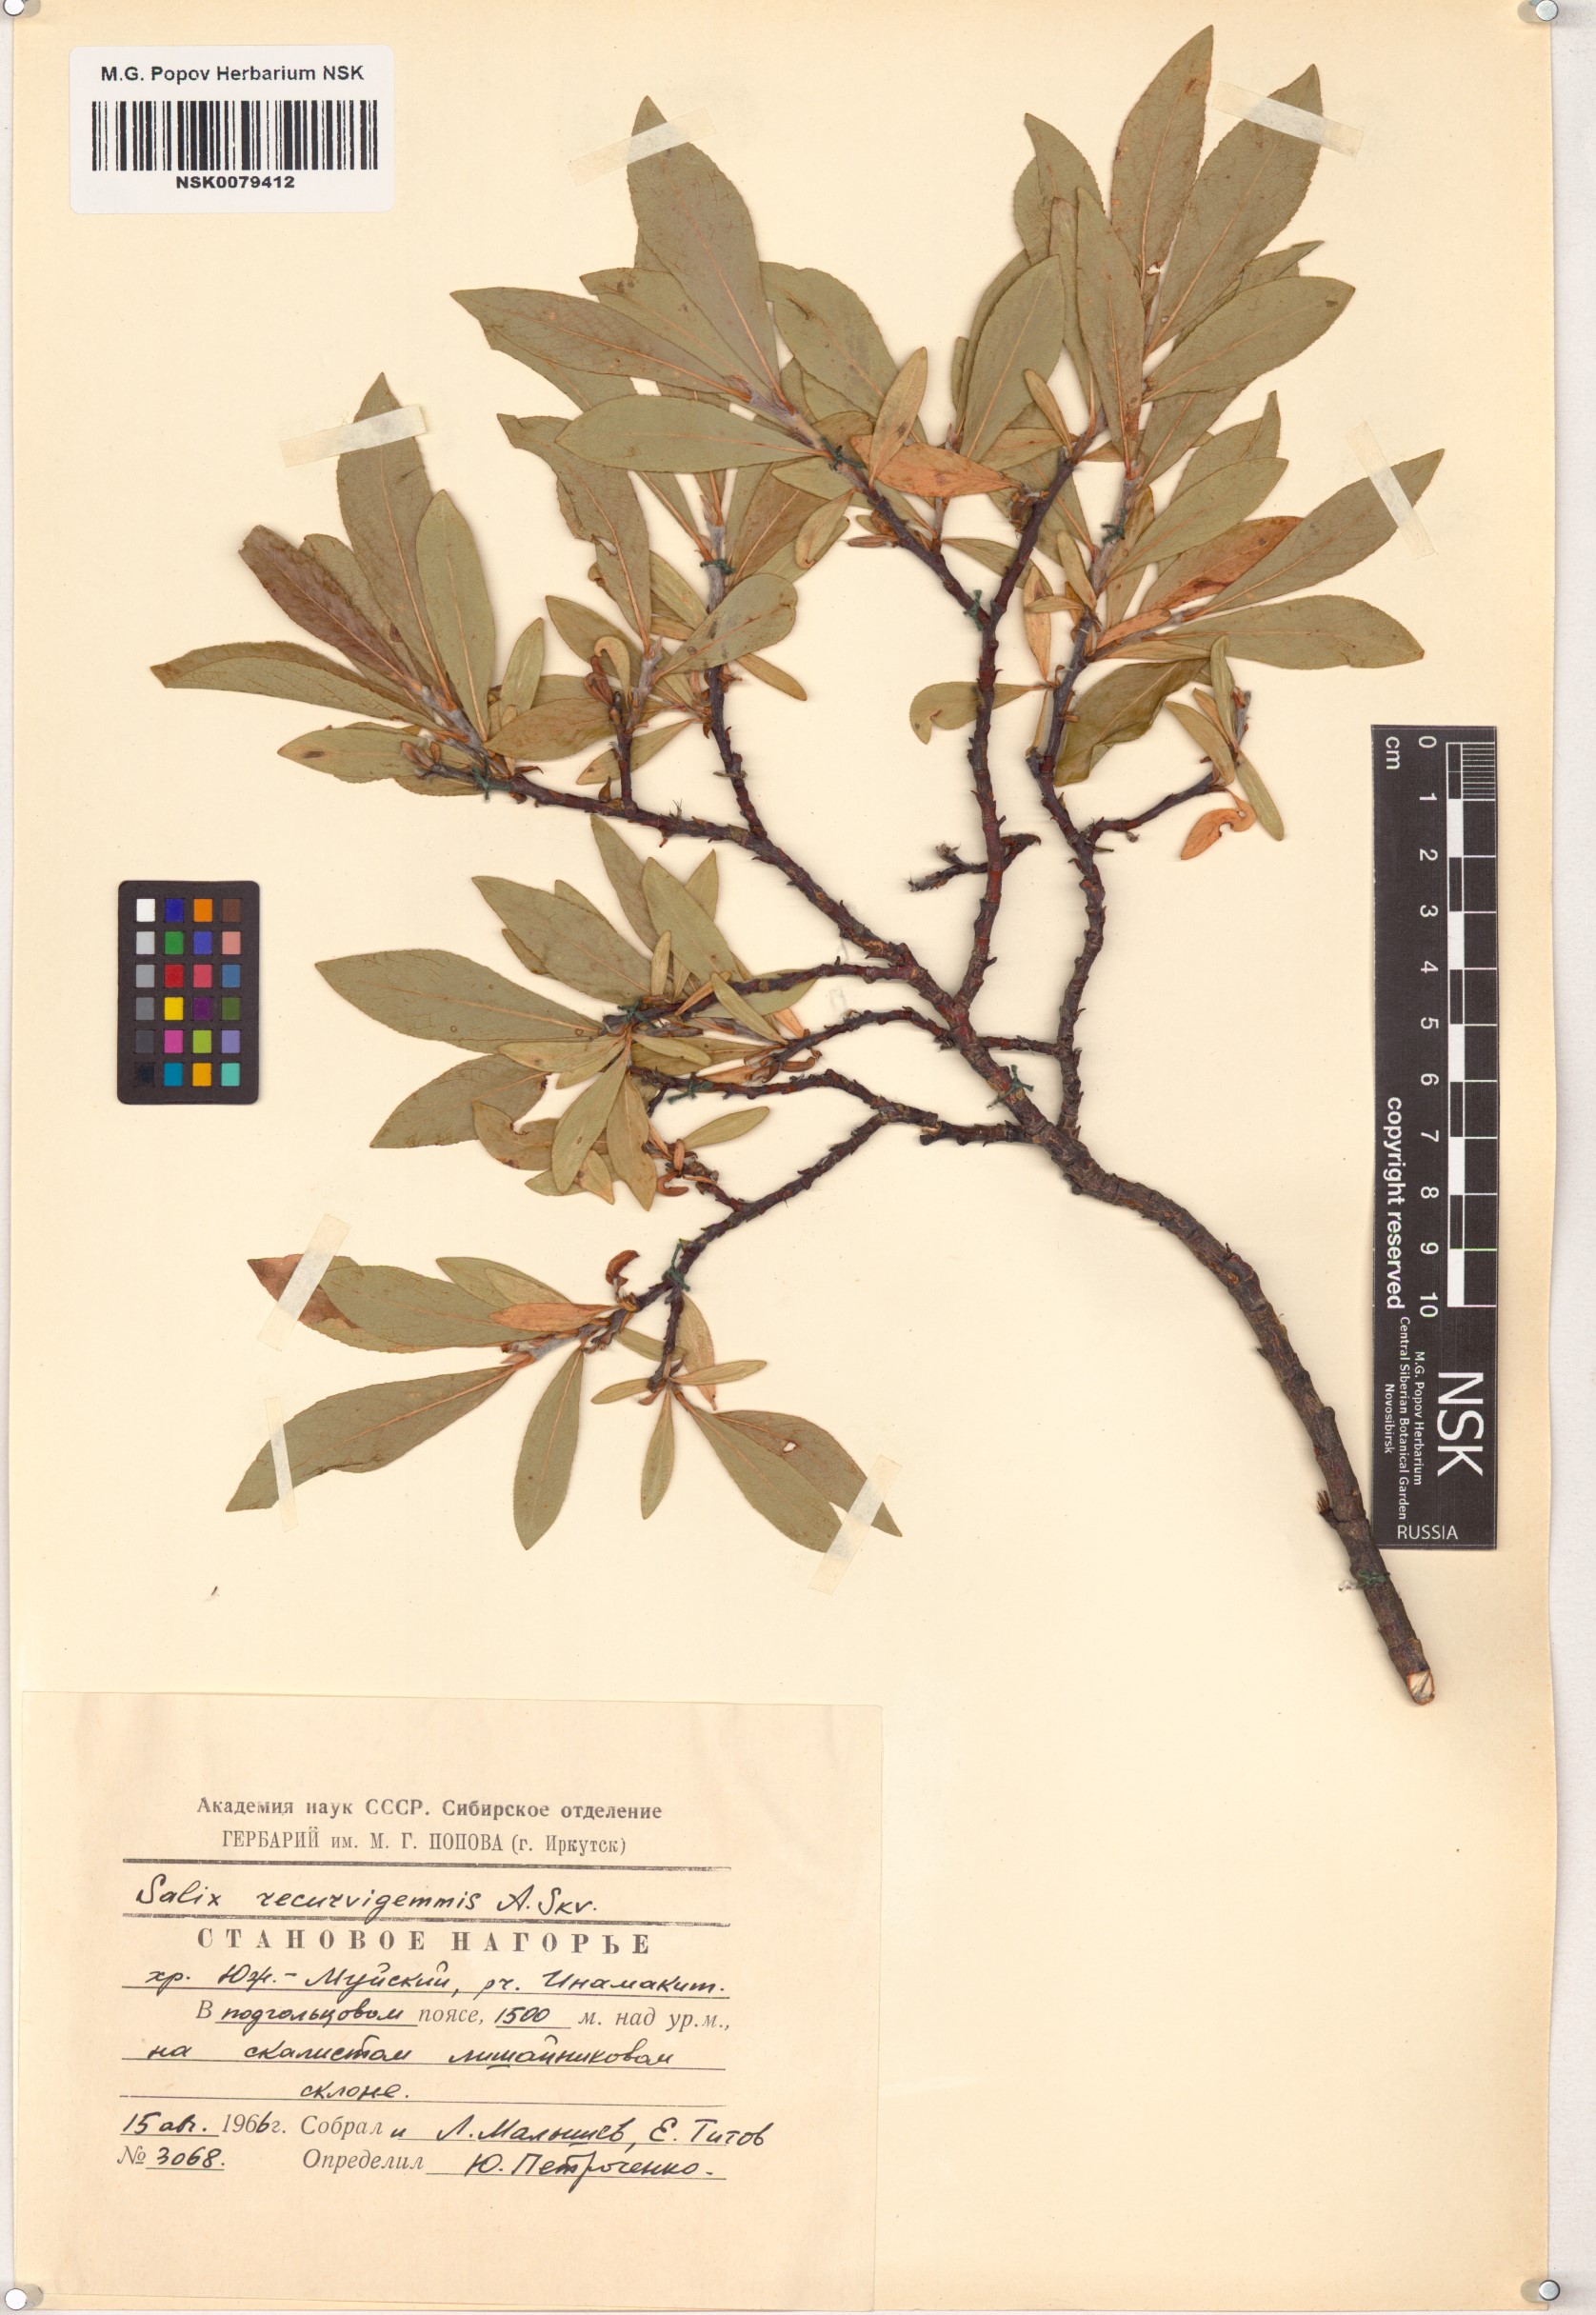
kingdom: Plantae
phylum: Tracheophyta
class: Magnoliopsida
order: Malpighiales
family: Salicaceae
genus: Salix
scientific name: Salix recurvigemmata
